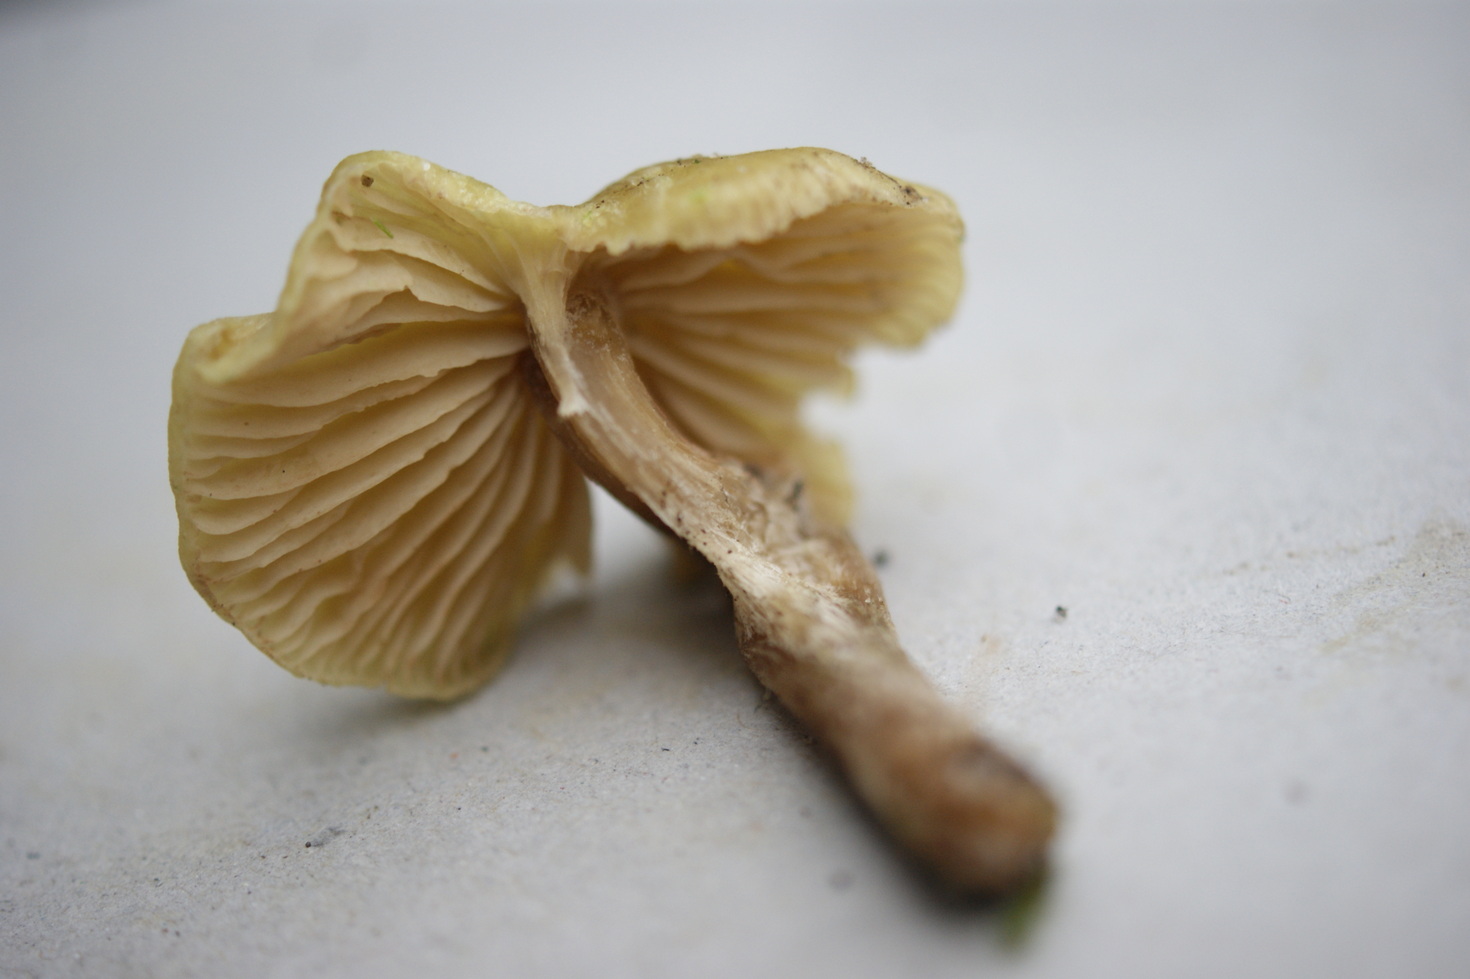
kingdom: Fungi
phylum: Basidiomycota
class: Agaricomycetes
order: Agaricales
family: Entolomataceae
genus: Entoloma
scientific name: Entoloma pleopodium
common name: duftende rødblad
